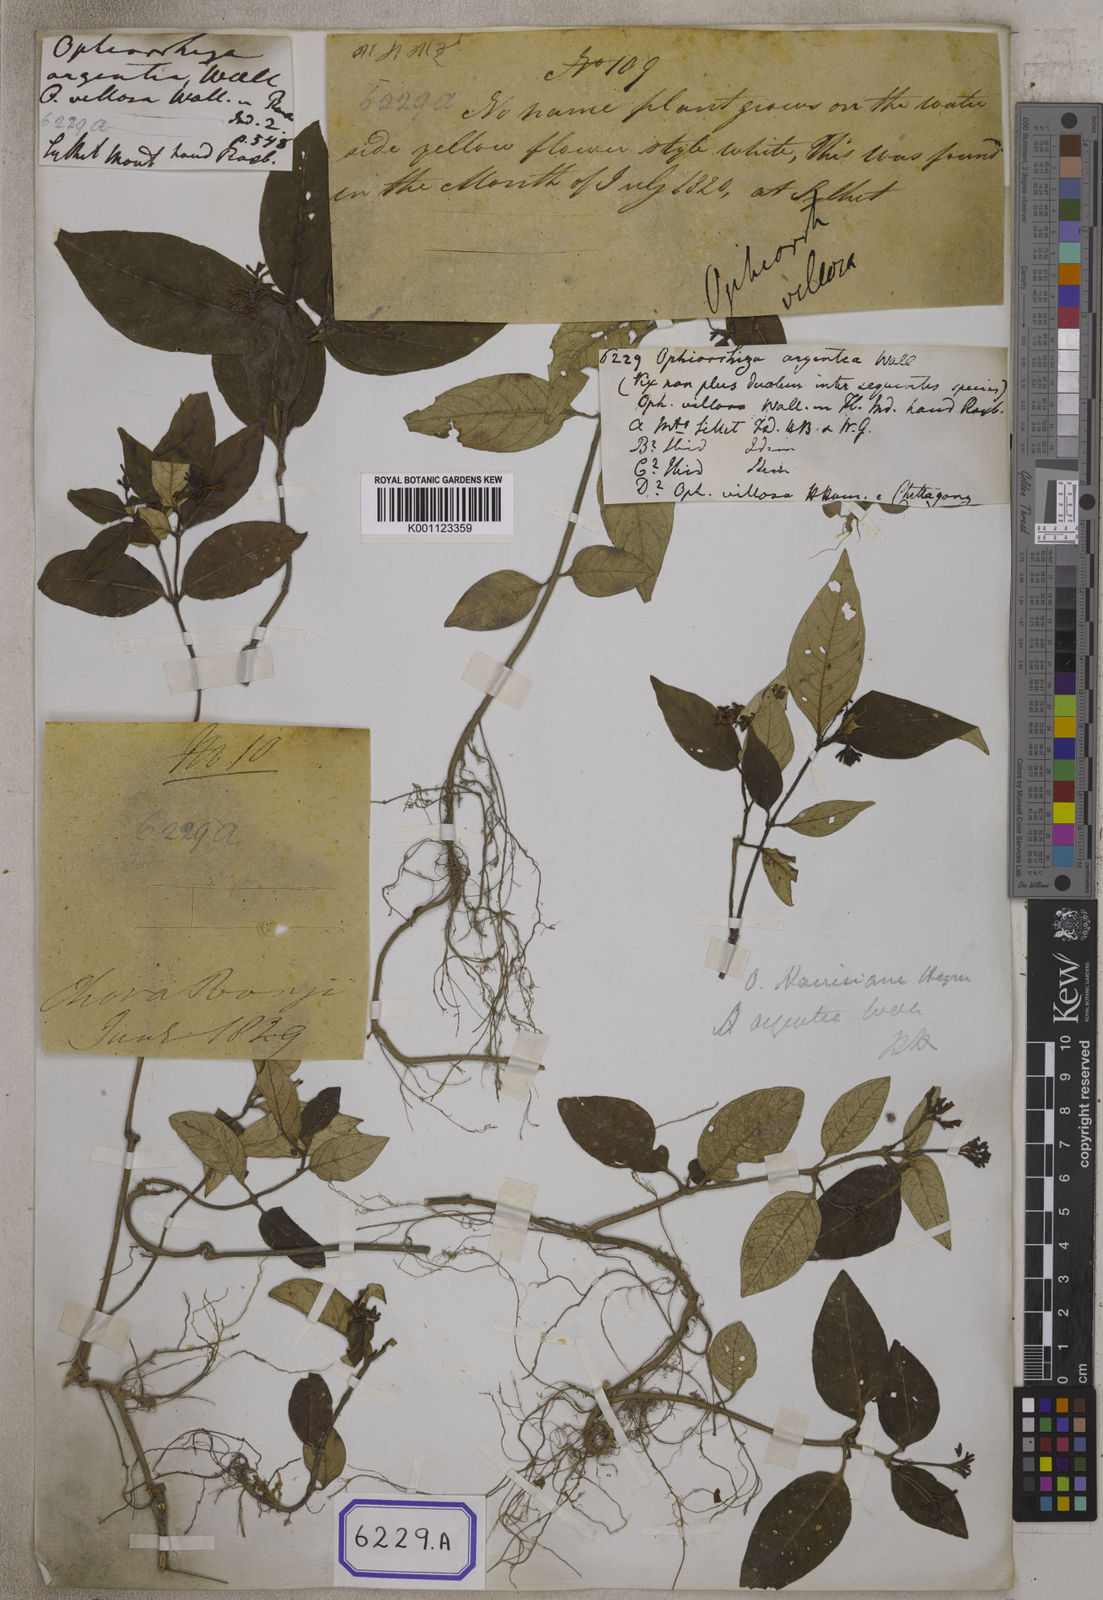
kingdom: Plantae
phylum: Tracheophyta
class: Magnoliopsida
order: Gentianales
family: Rubiaceae
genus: Ophiorrhiza
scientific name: Ophiorrhiza
